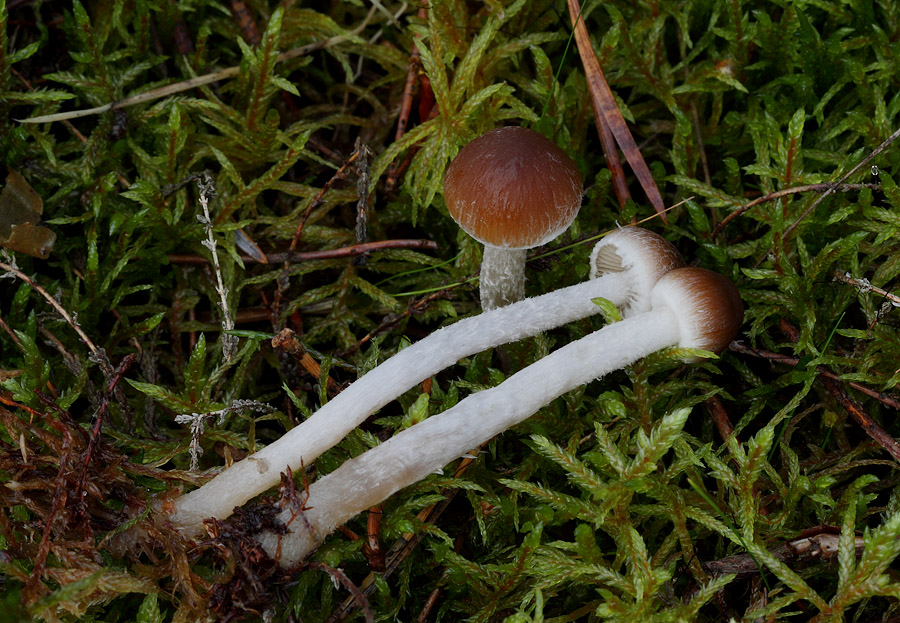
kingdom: Fungi
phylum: Basidiomycota
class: Agaricomycetes
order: Agaricales
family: Psathyrellaceae
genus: Psathyrella
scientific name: Psathyrella fibrillosa
